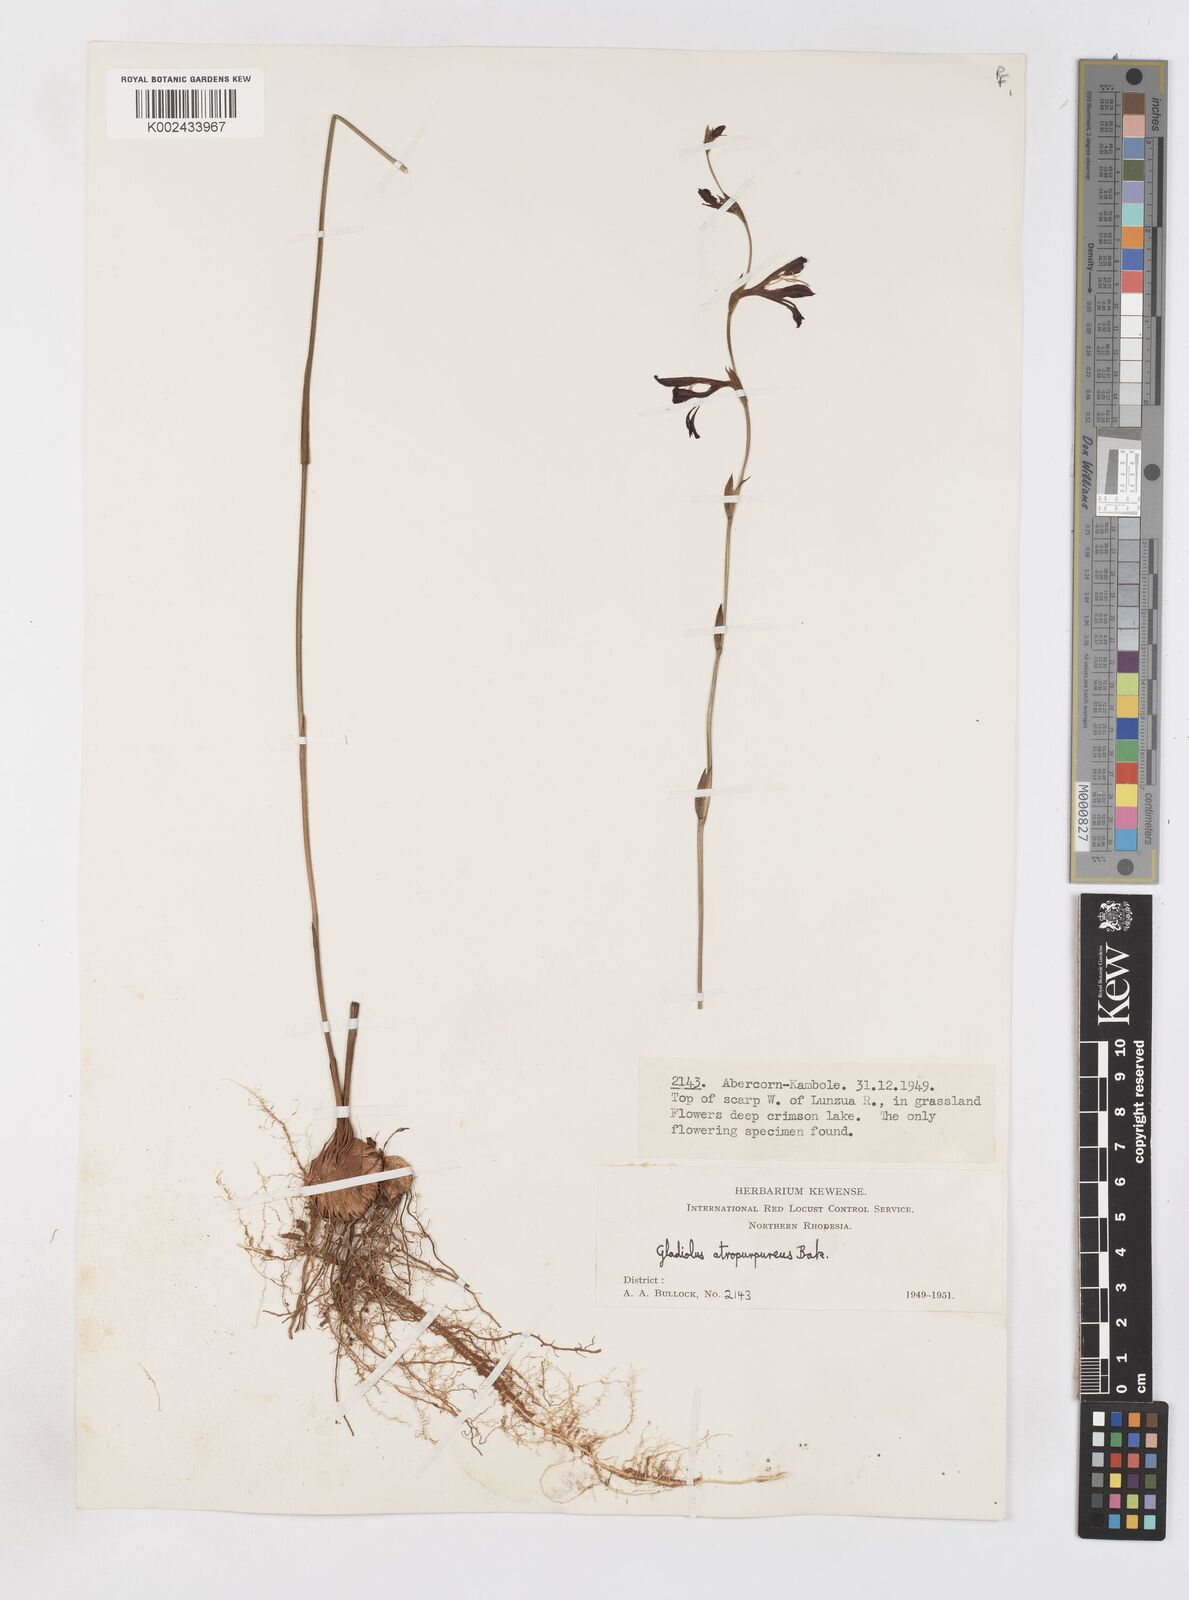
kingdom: Plantae
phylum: Tracheophyta
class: Liliopsida
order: Asparagales
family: Iridaceae
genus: Gladiolus
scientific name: Gladiolus atropurpureus
